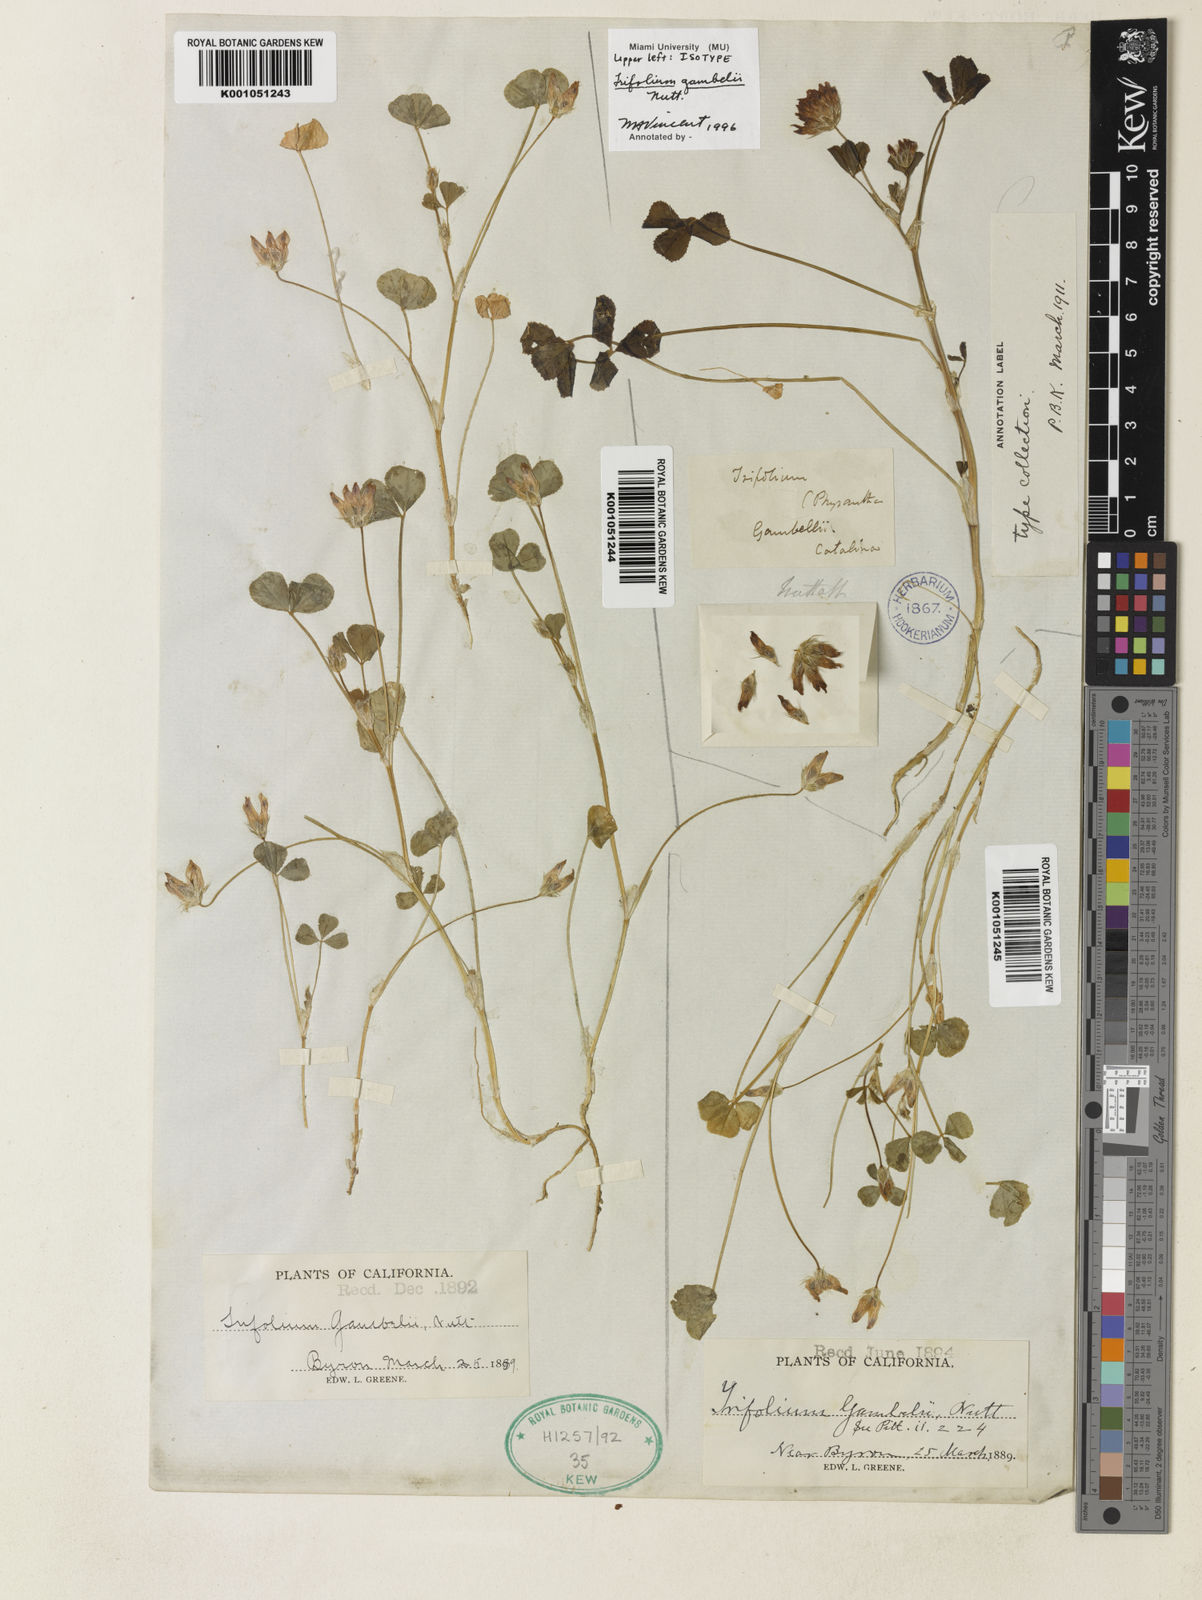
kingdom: Plantae
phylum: Tracheophyta
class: Magnoliopsida
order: Fabales
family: Fabaceae
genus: Trifolium
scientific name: Trifolium fucatum
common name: Puff clover
